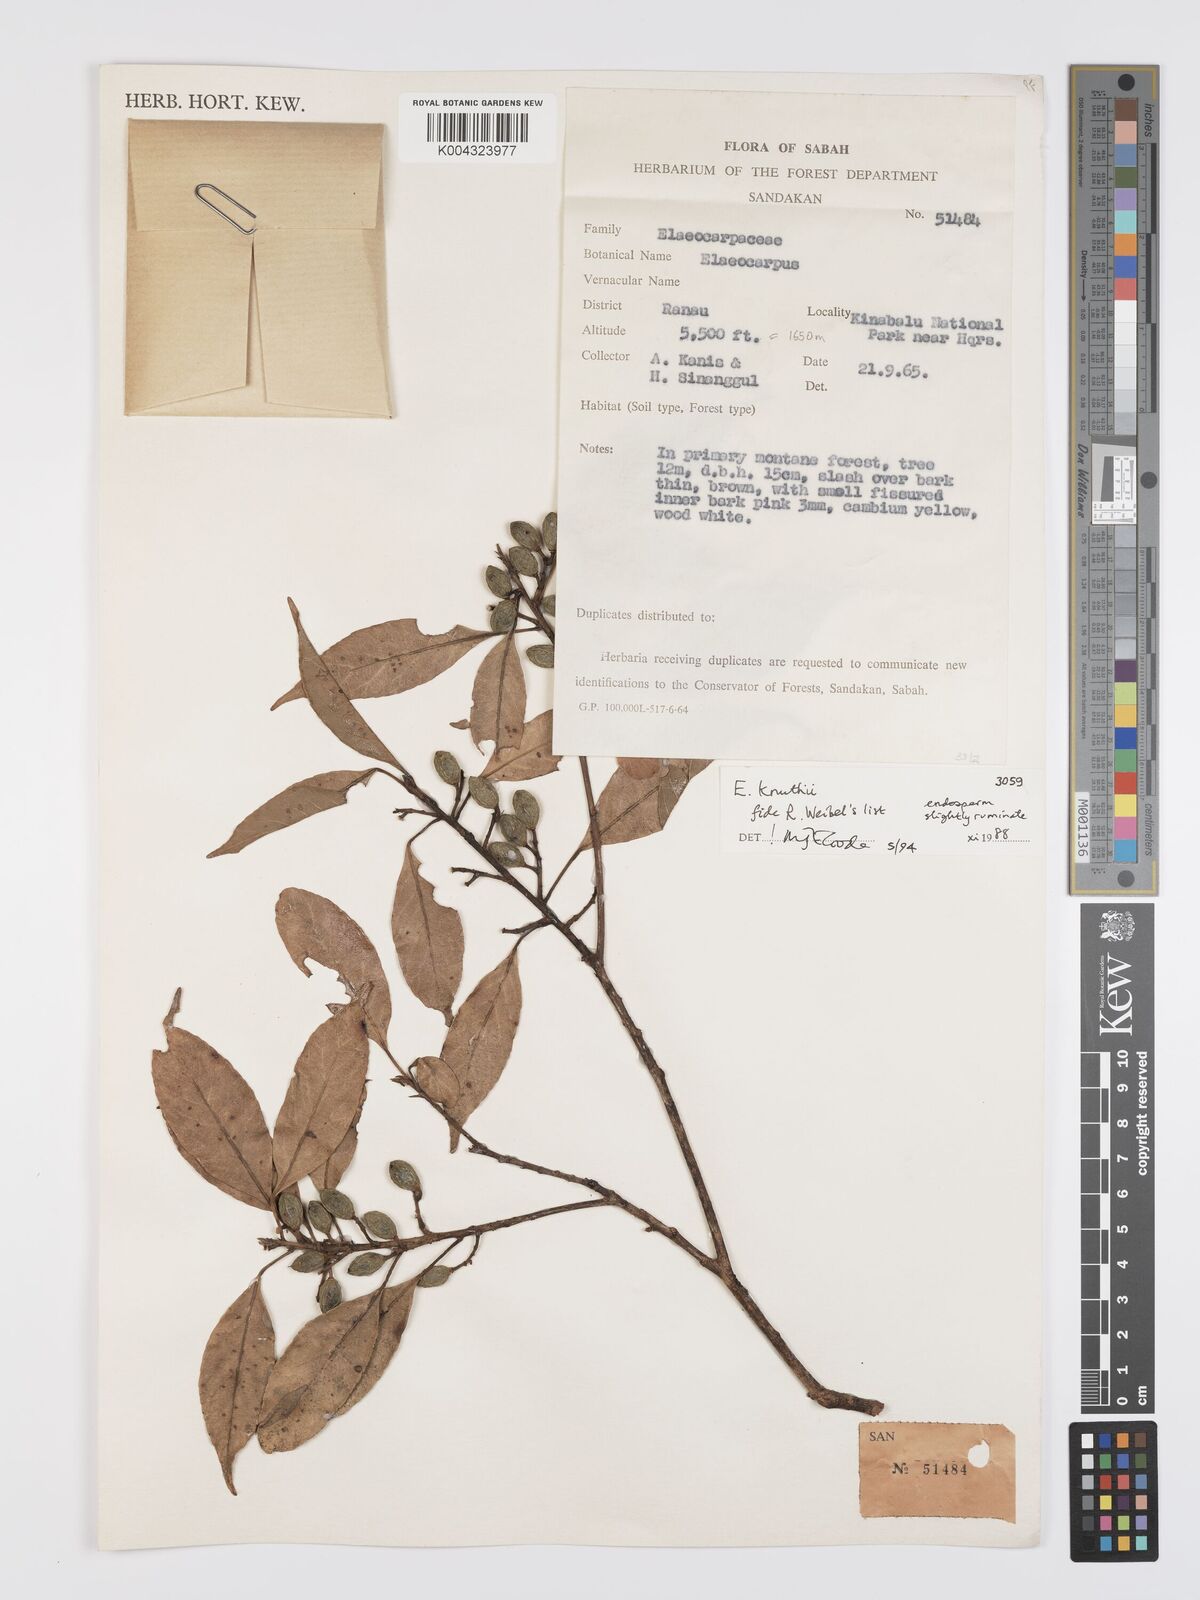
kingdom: Plantae
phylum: Tracheophyta
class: Magnoliopsida
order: Oxalidales
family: Elaeocarpaceae
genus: Elaeocarpus
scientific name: Elaeocarpus knuthii
